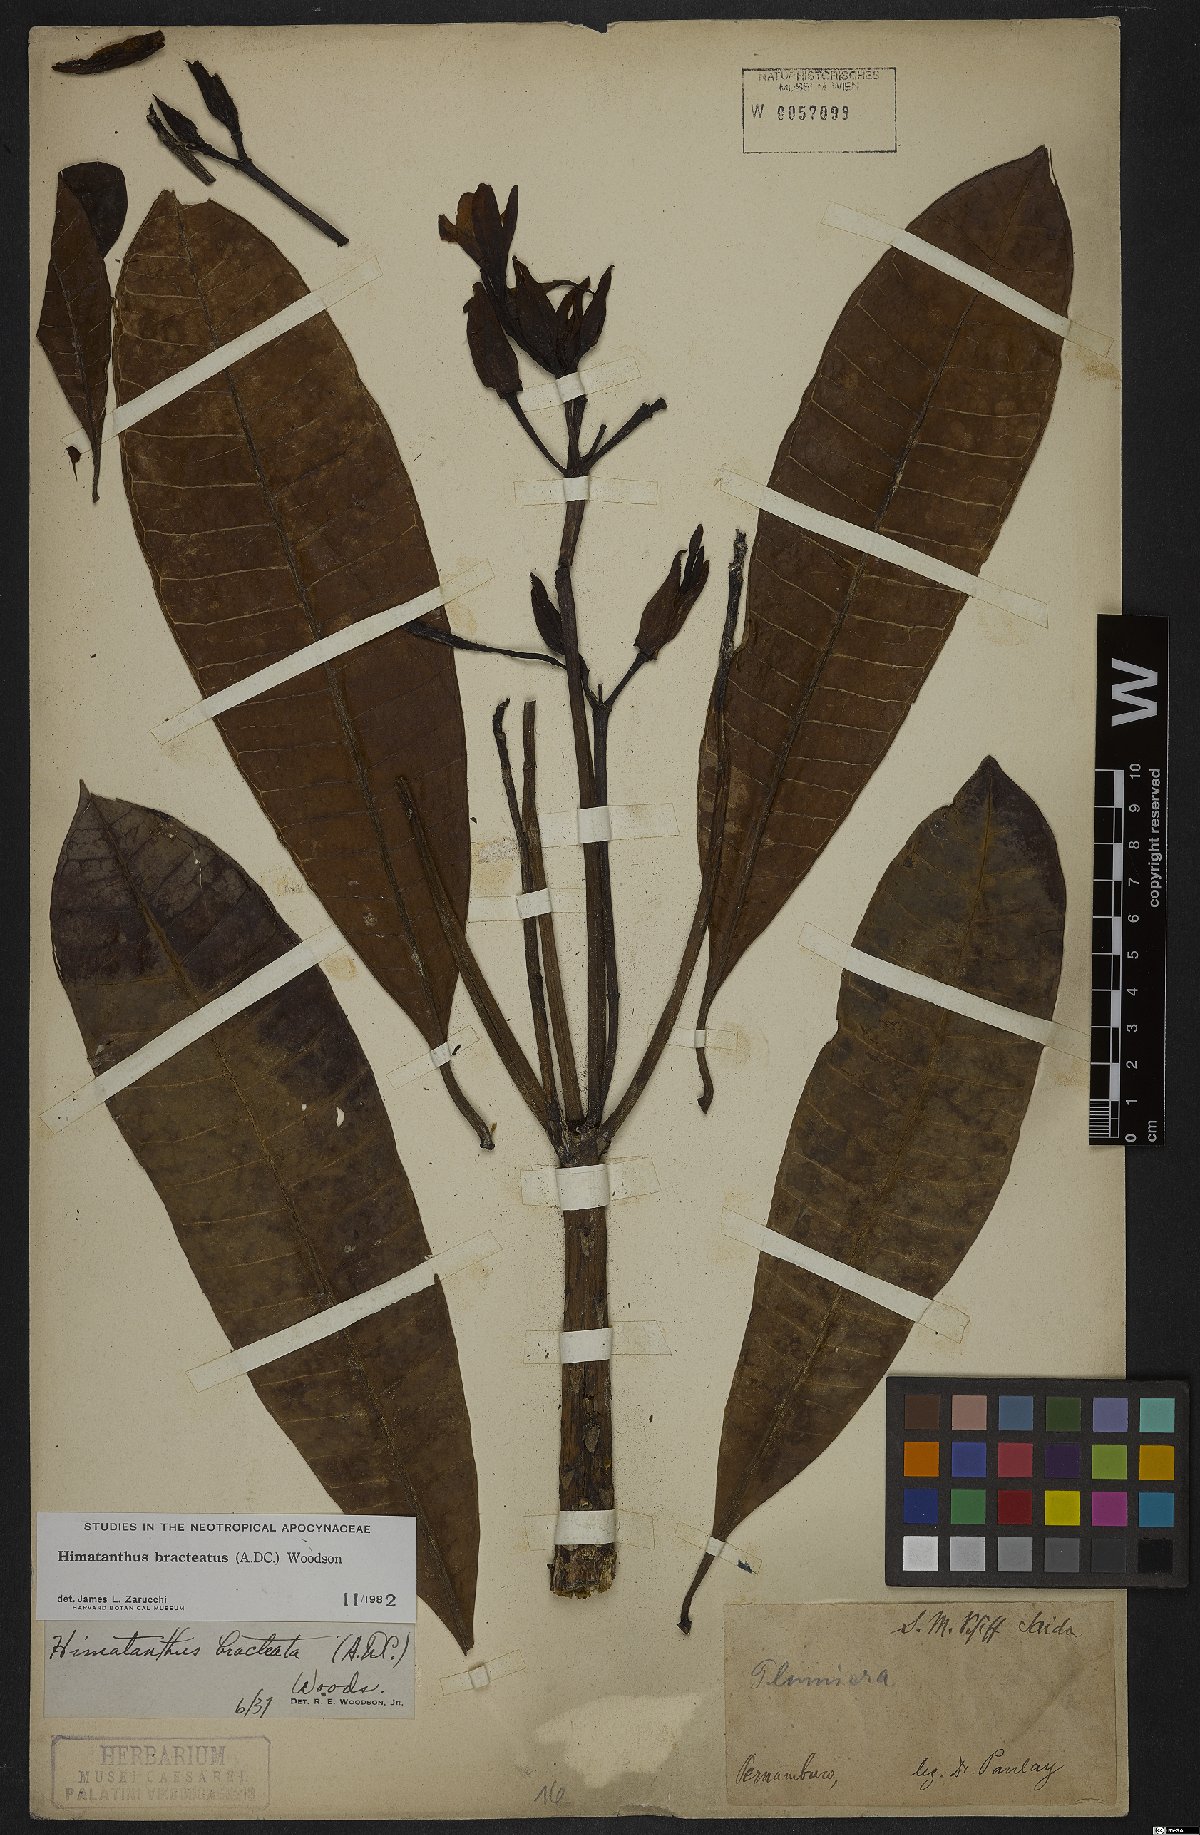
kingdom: Plantae
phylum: Tracheophyta
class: Magnoliopsida
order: Gentianales
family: Apocynaceae
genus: Himatanthus
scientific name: Himatanthus bracteatus
